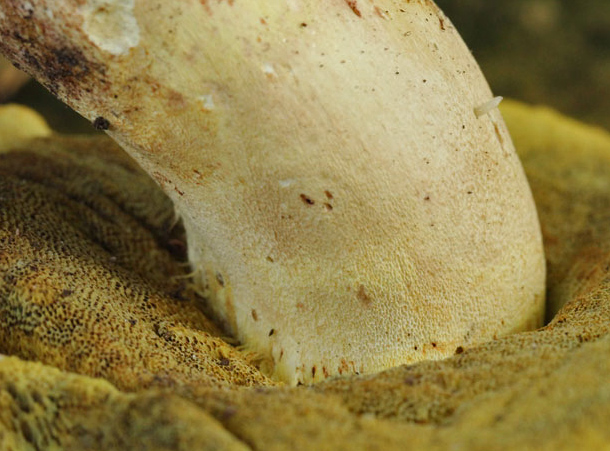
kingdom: Fungi
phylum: Basidiomycota
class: Agaricomycetes
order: Boletales
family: Boletaceae
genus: Butyriboletus
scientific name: Butyriboletus appendiculatus
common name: tenstokket rørhat
